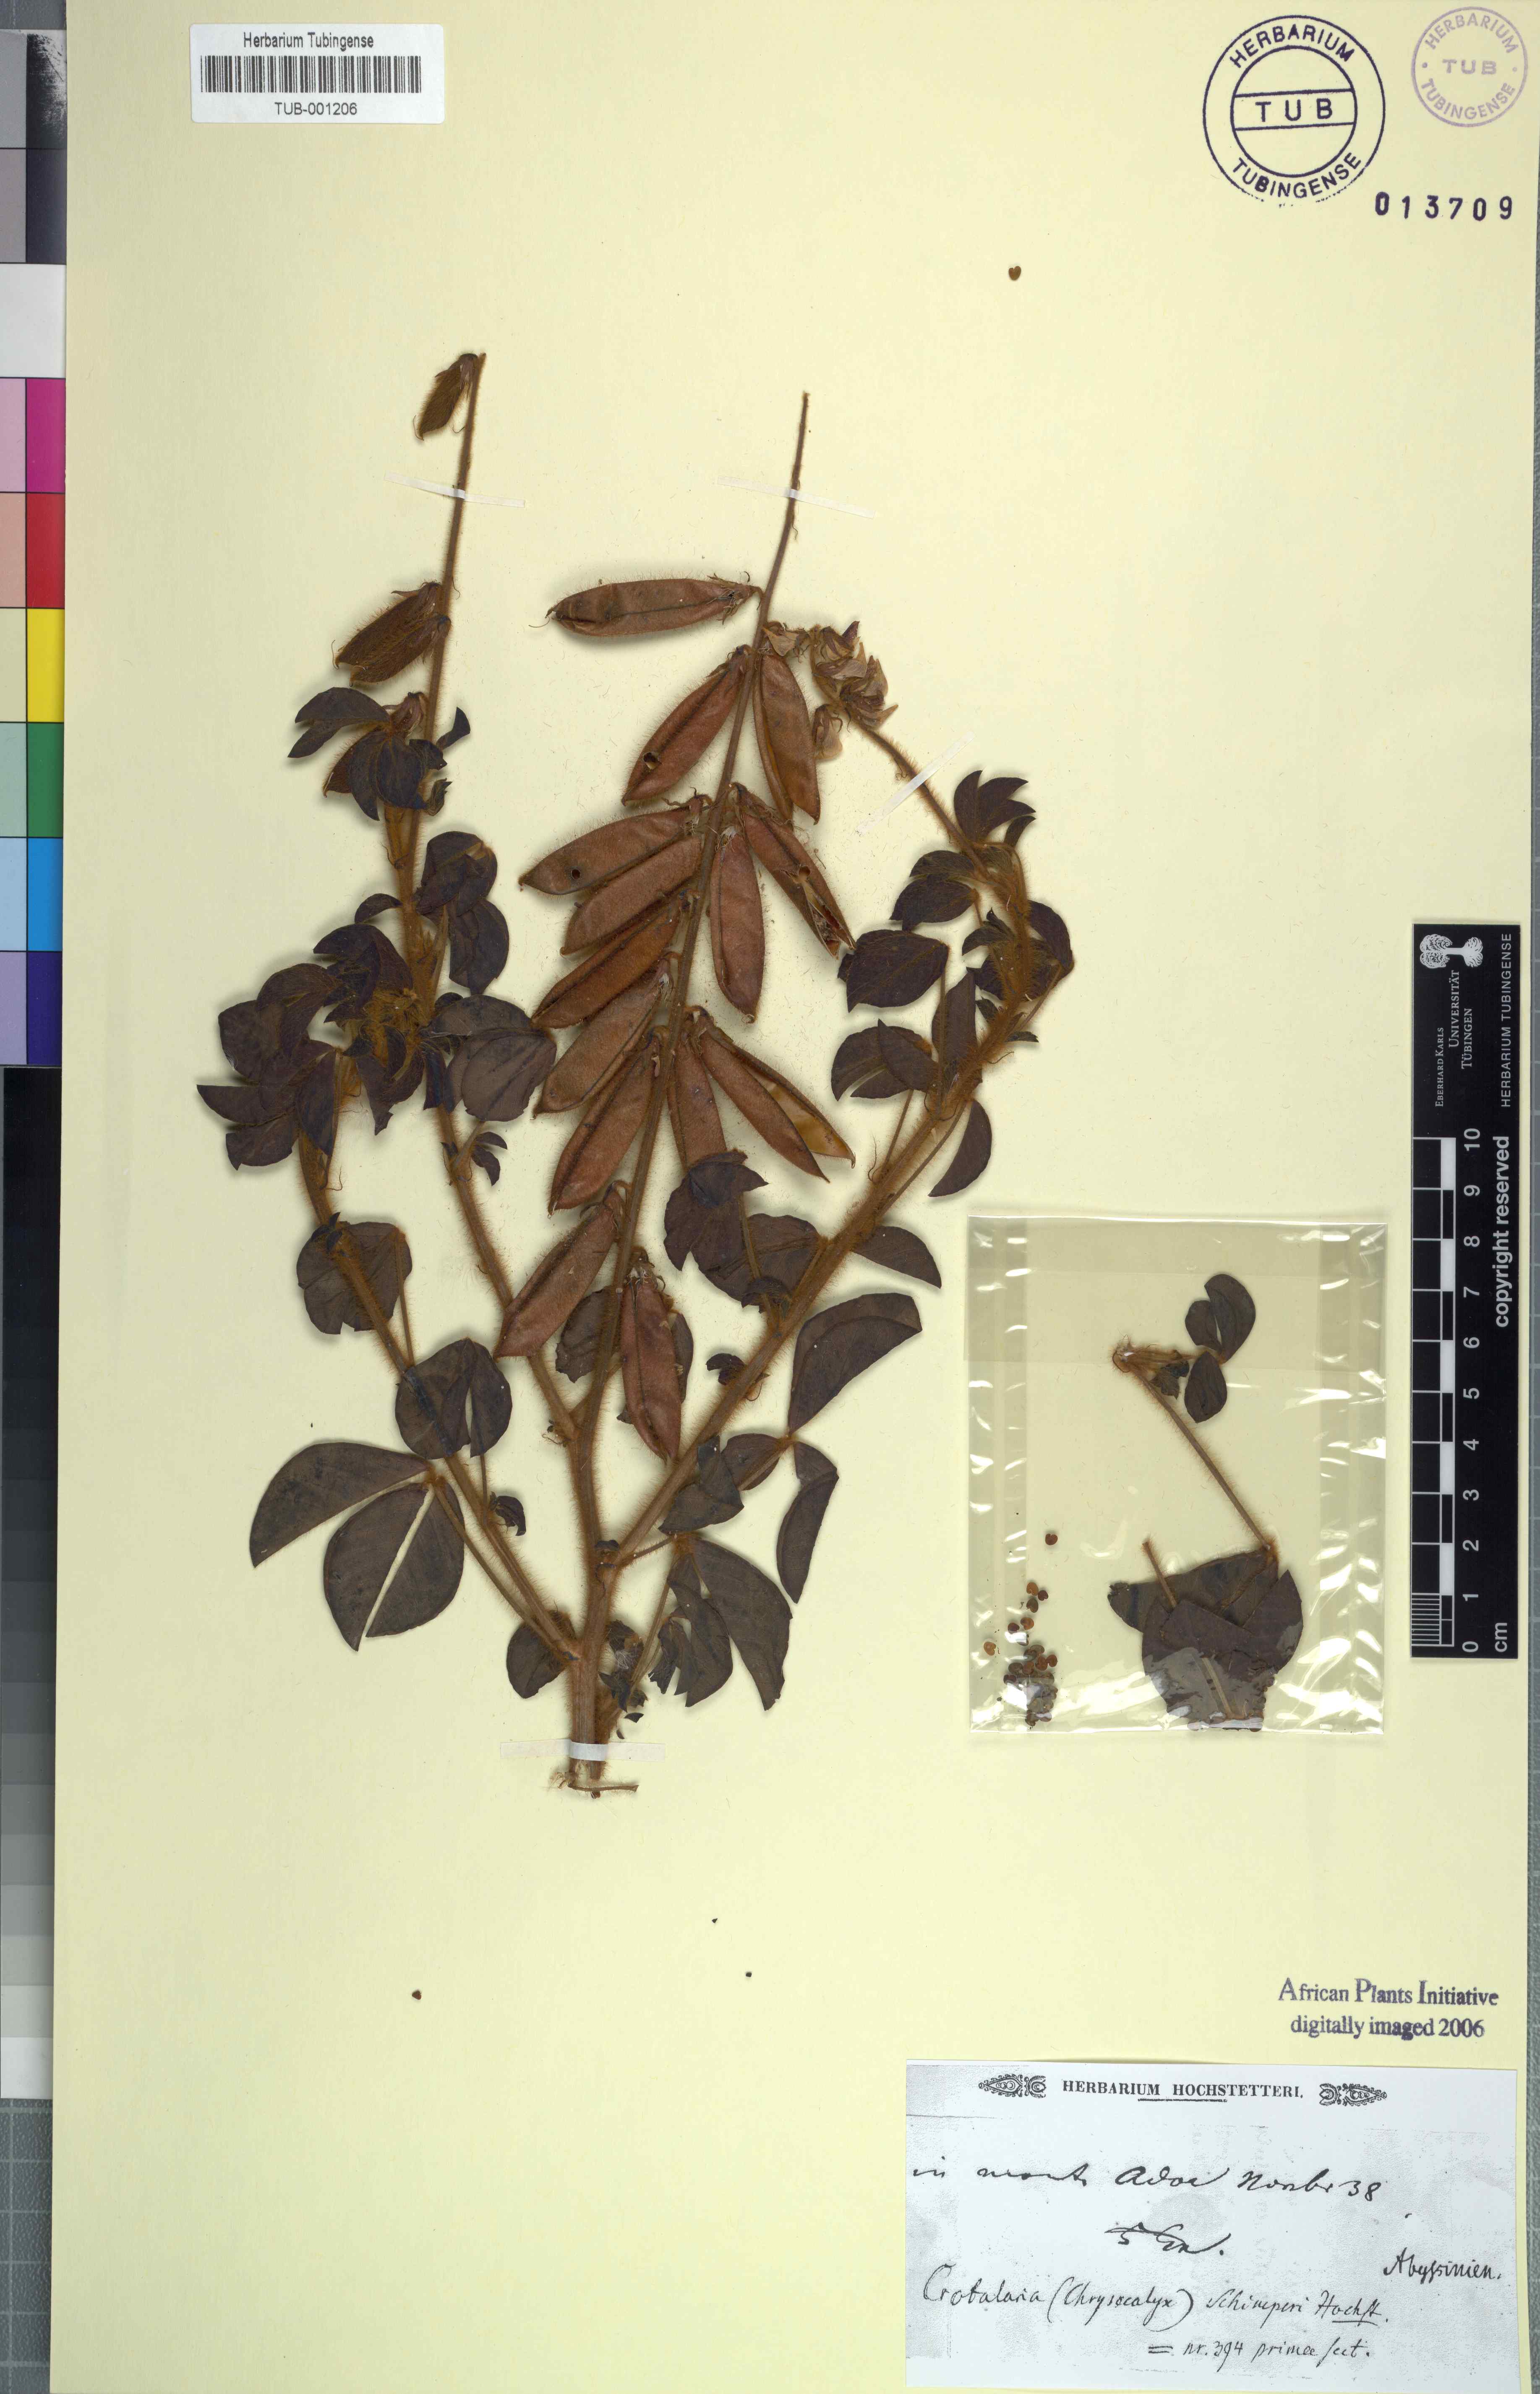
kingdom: Plantae
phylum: Tracheophyta
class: Magnoliopsida
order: Fabales
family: Fabaceae
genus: Crotalaria
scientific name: Crotalaria incana
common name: Shakeshake
